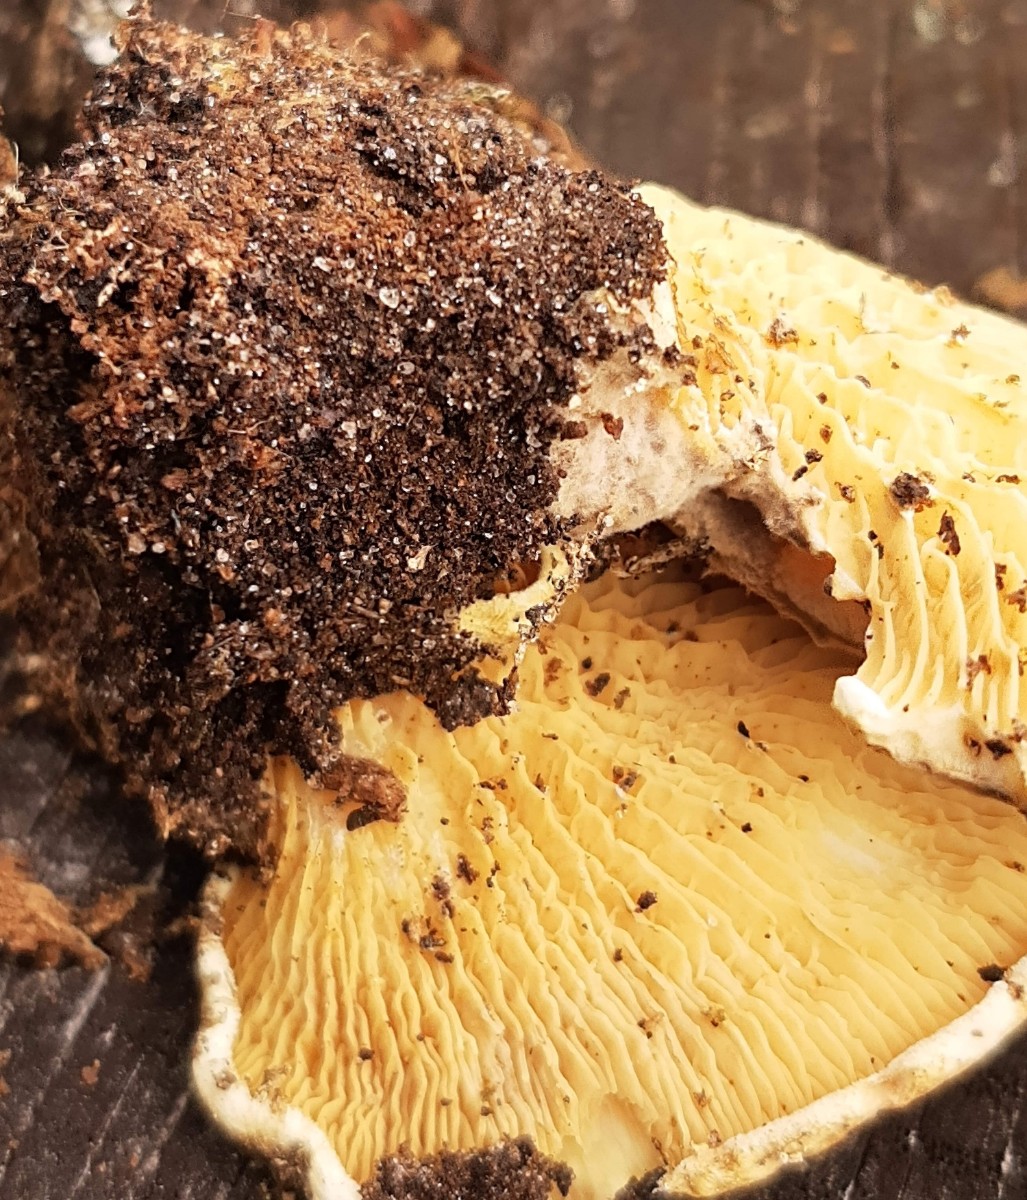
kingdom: Fungi
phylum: Basidiomycota
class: Agaricomycetes
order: Boletales
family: Tapinellaceae
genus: Tapinella
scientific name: Tapinella panuoides
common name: tømmer-viftesvamp
